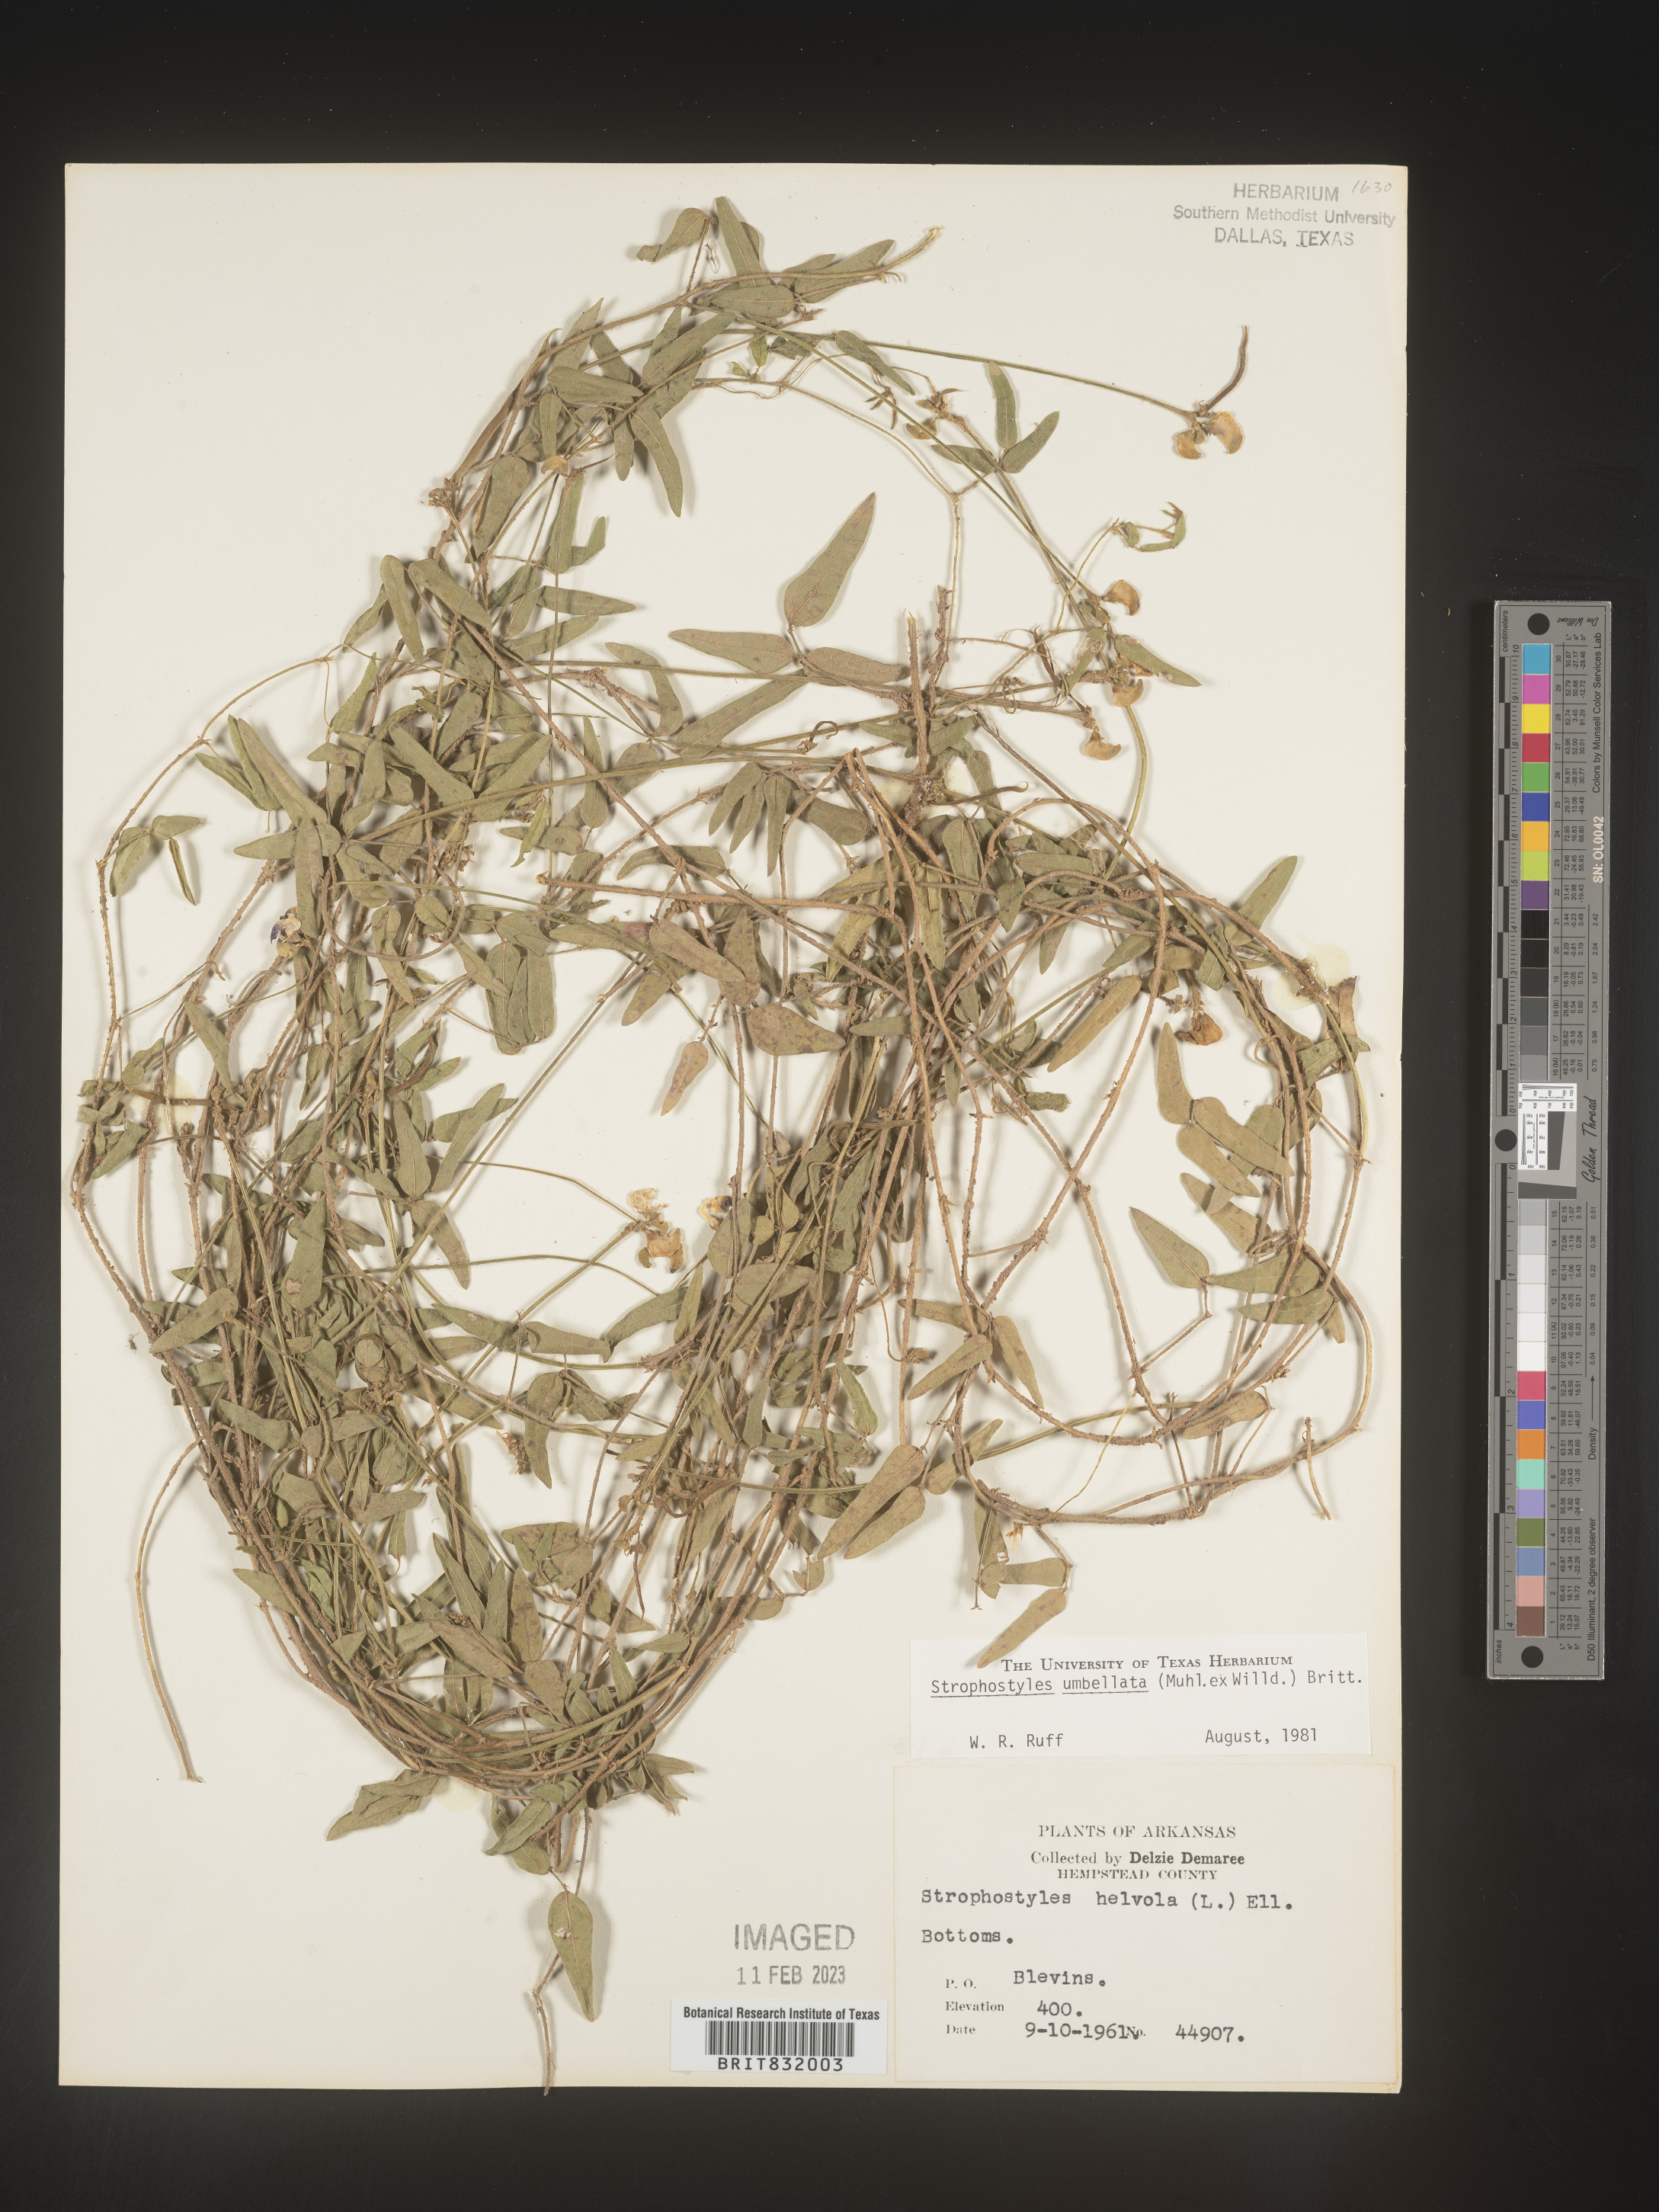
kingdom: Plantae
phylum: Tracheophyta
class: Magnoliopsida
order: Fabales
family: Fabaceae
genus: Strophostyles
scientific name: Strophostyles umbellata
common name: Perennial wild bean
